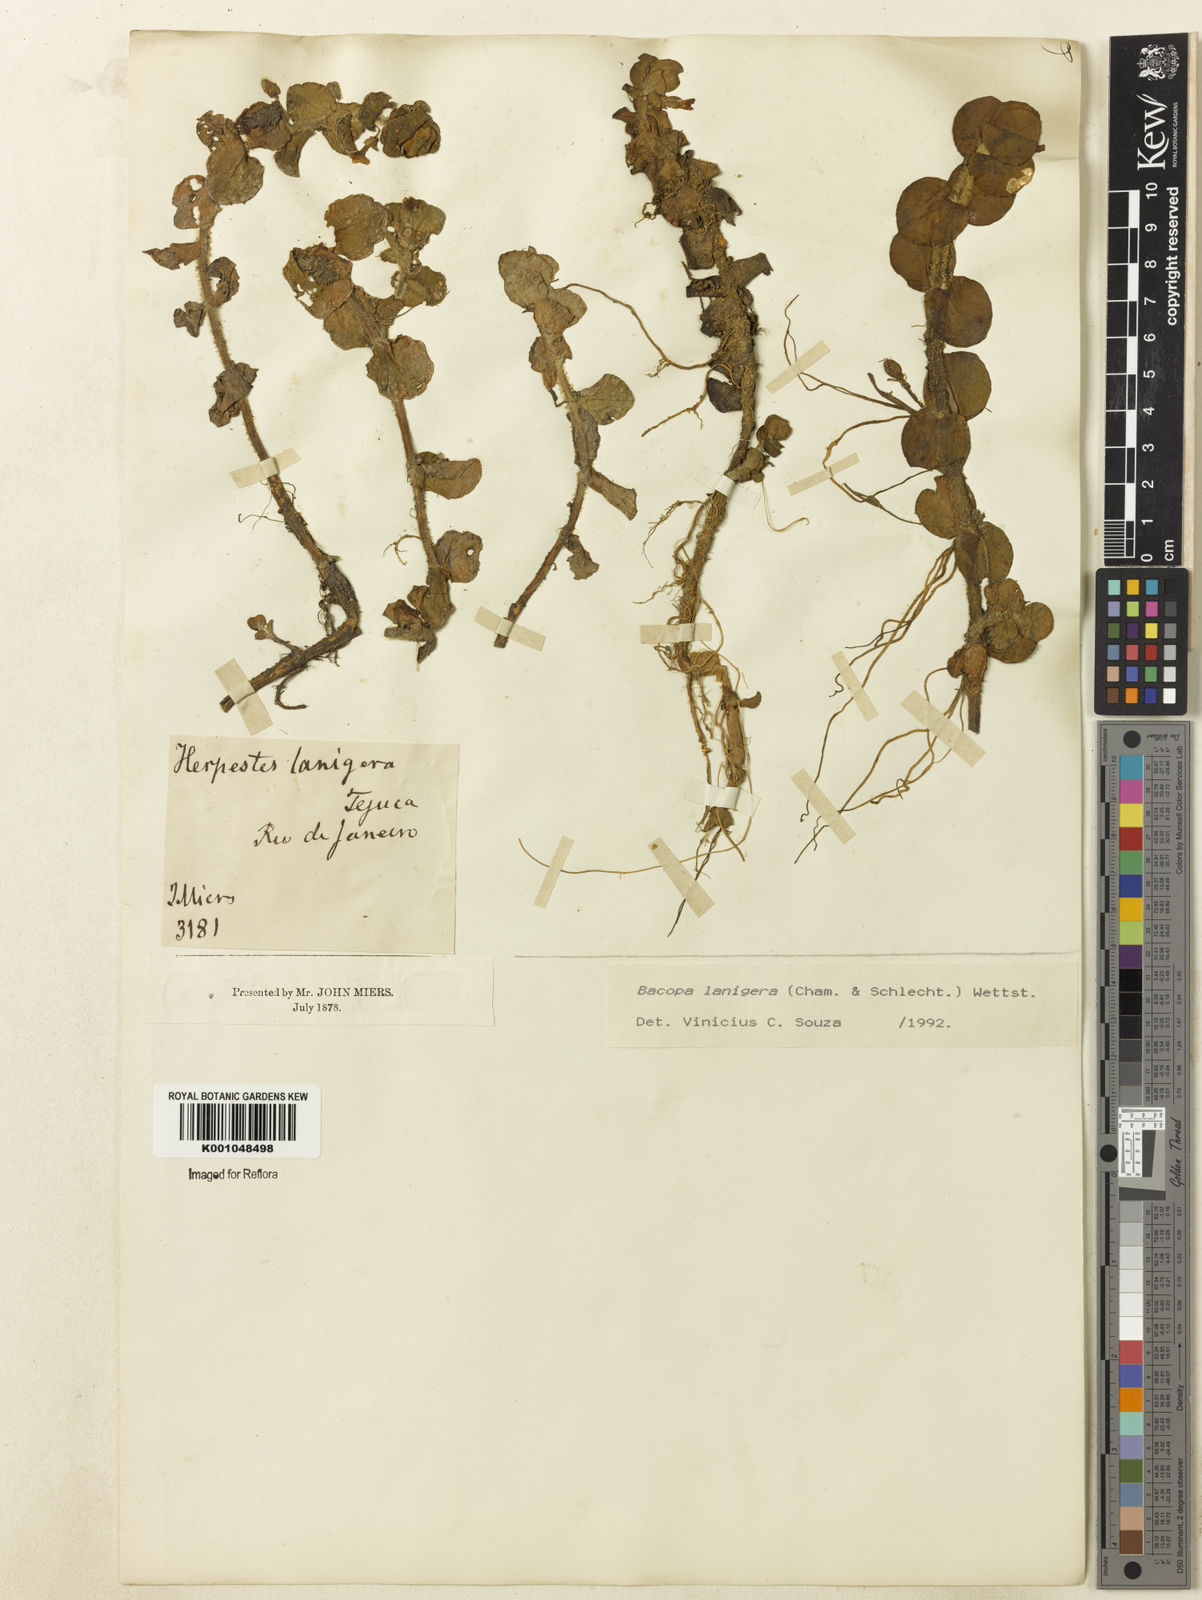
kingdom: Plantae
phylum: Tracheophyta
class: Magnoliopsida
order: Lamiales
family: Plantaginaceae
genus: Bacopa
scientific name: Bacopa lanigera
